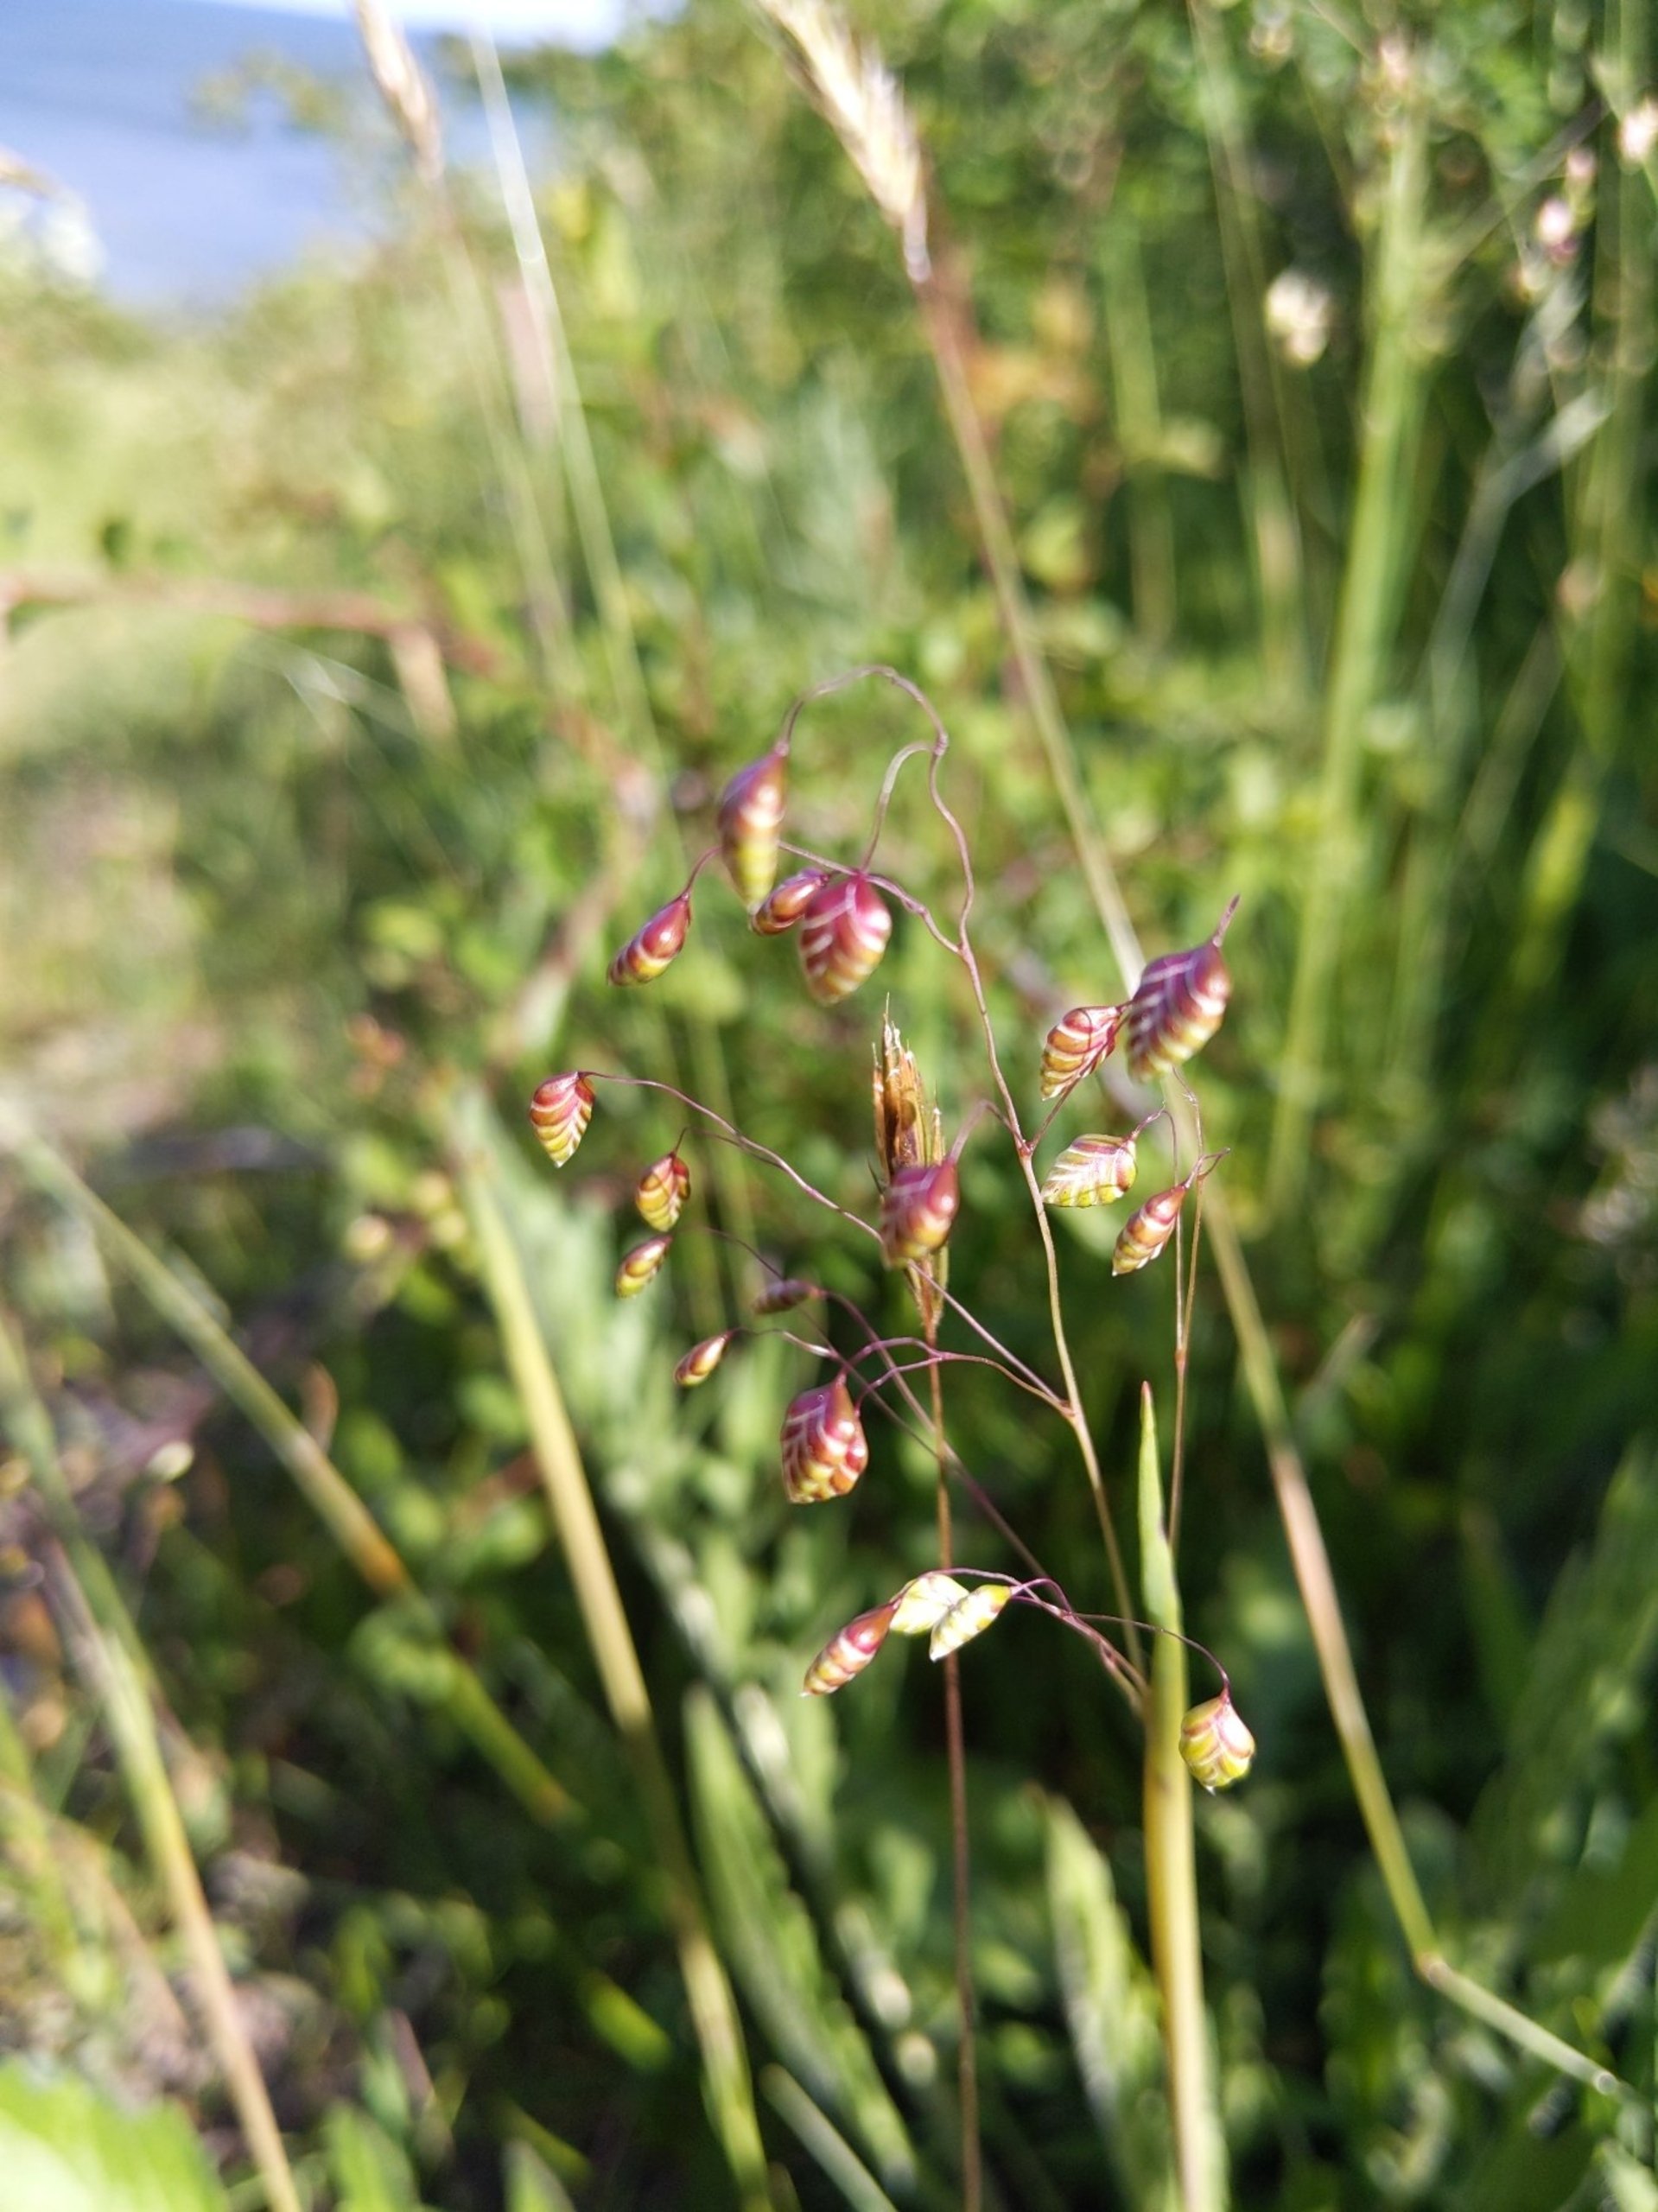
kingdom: Plantae
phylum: Tracheophyta
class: Liliopsida
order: Poales
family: Poaceae
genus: Briza
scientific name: Briza media
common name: Hjertegræs
